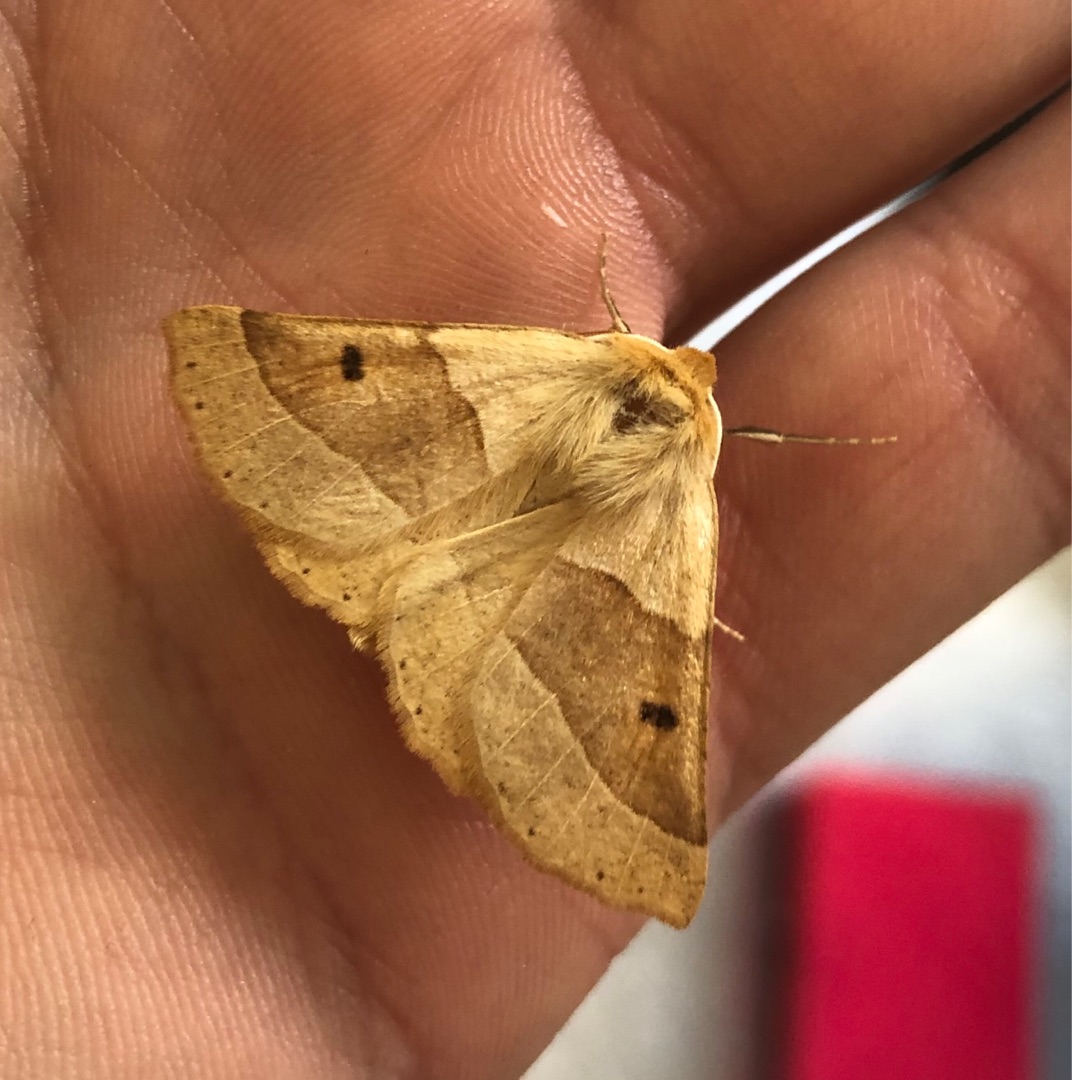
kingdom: Animalia
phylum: Arthropoda
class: Insecta
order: Lepidoptera
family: Geometridae
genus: Crocallis
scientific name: Crocallis elinguaria
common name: Okkergul rovmåler
